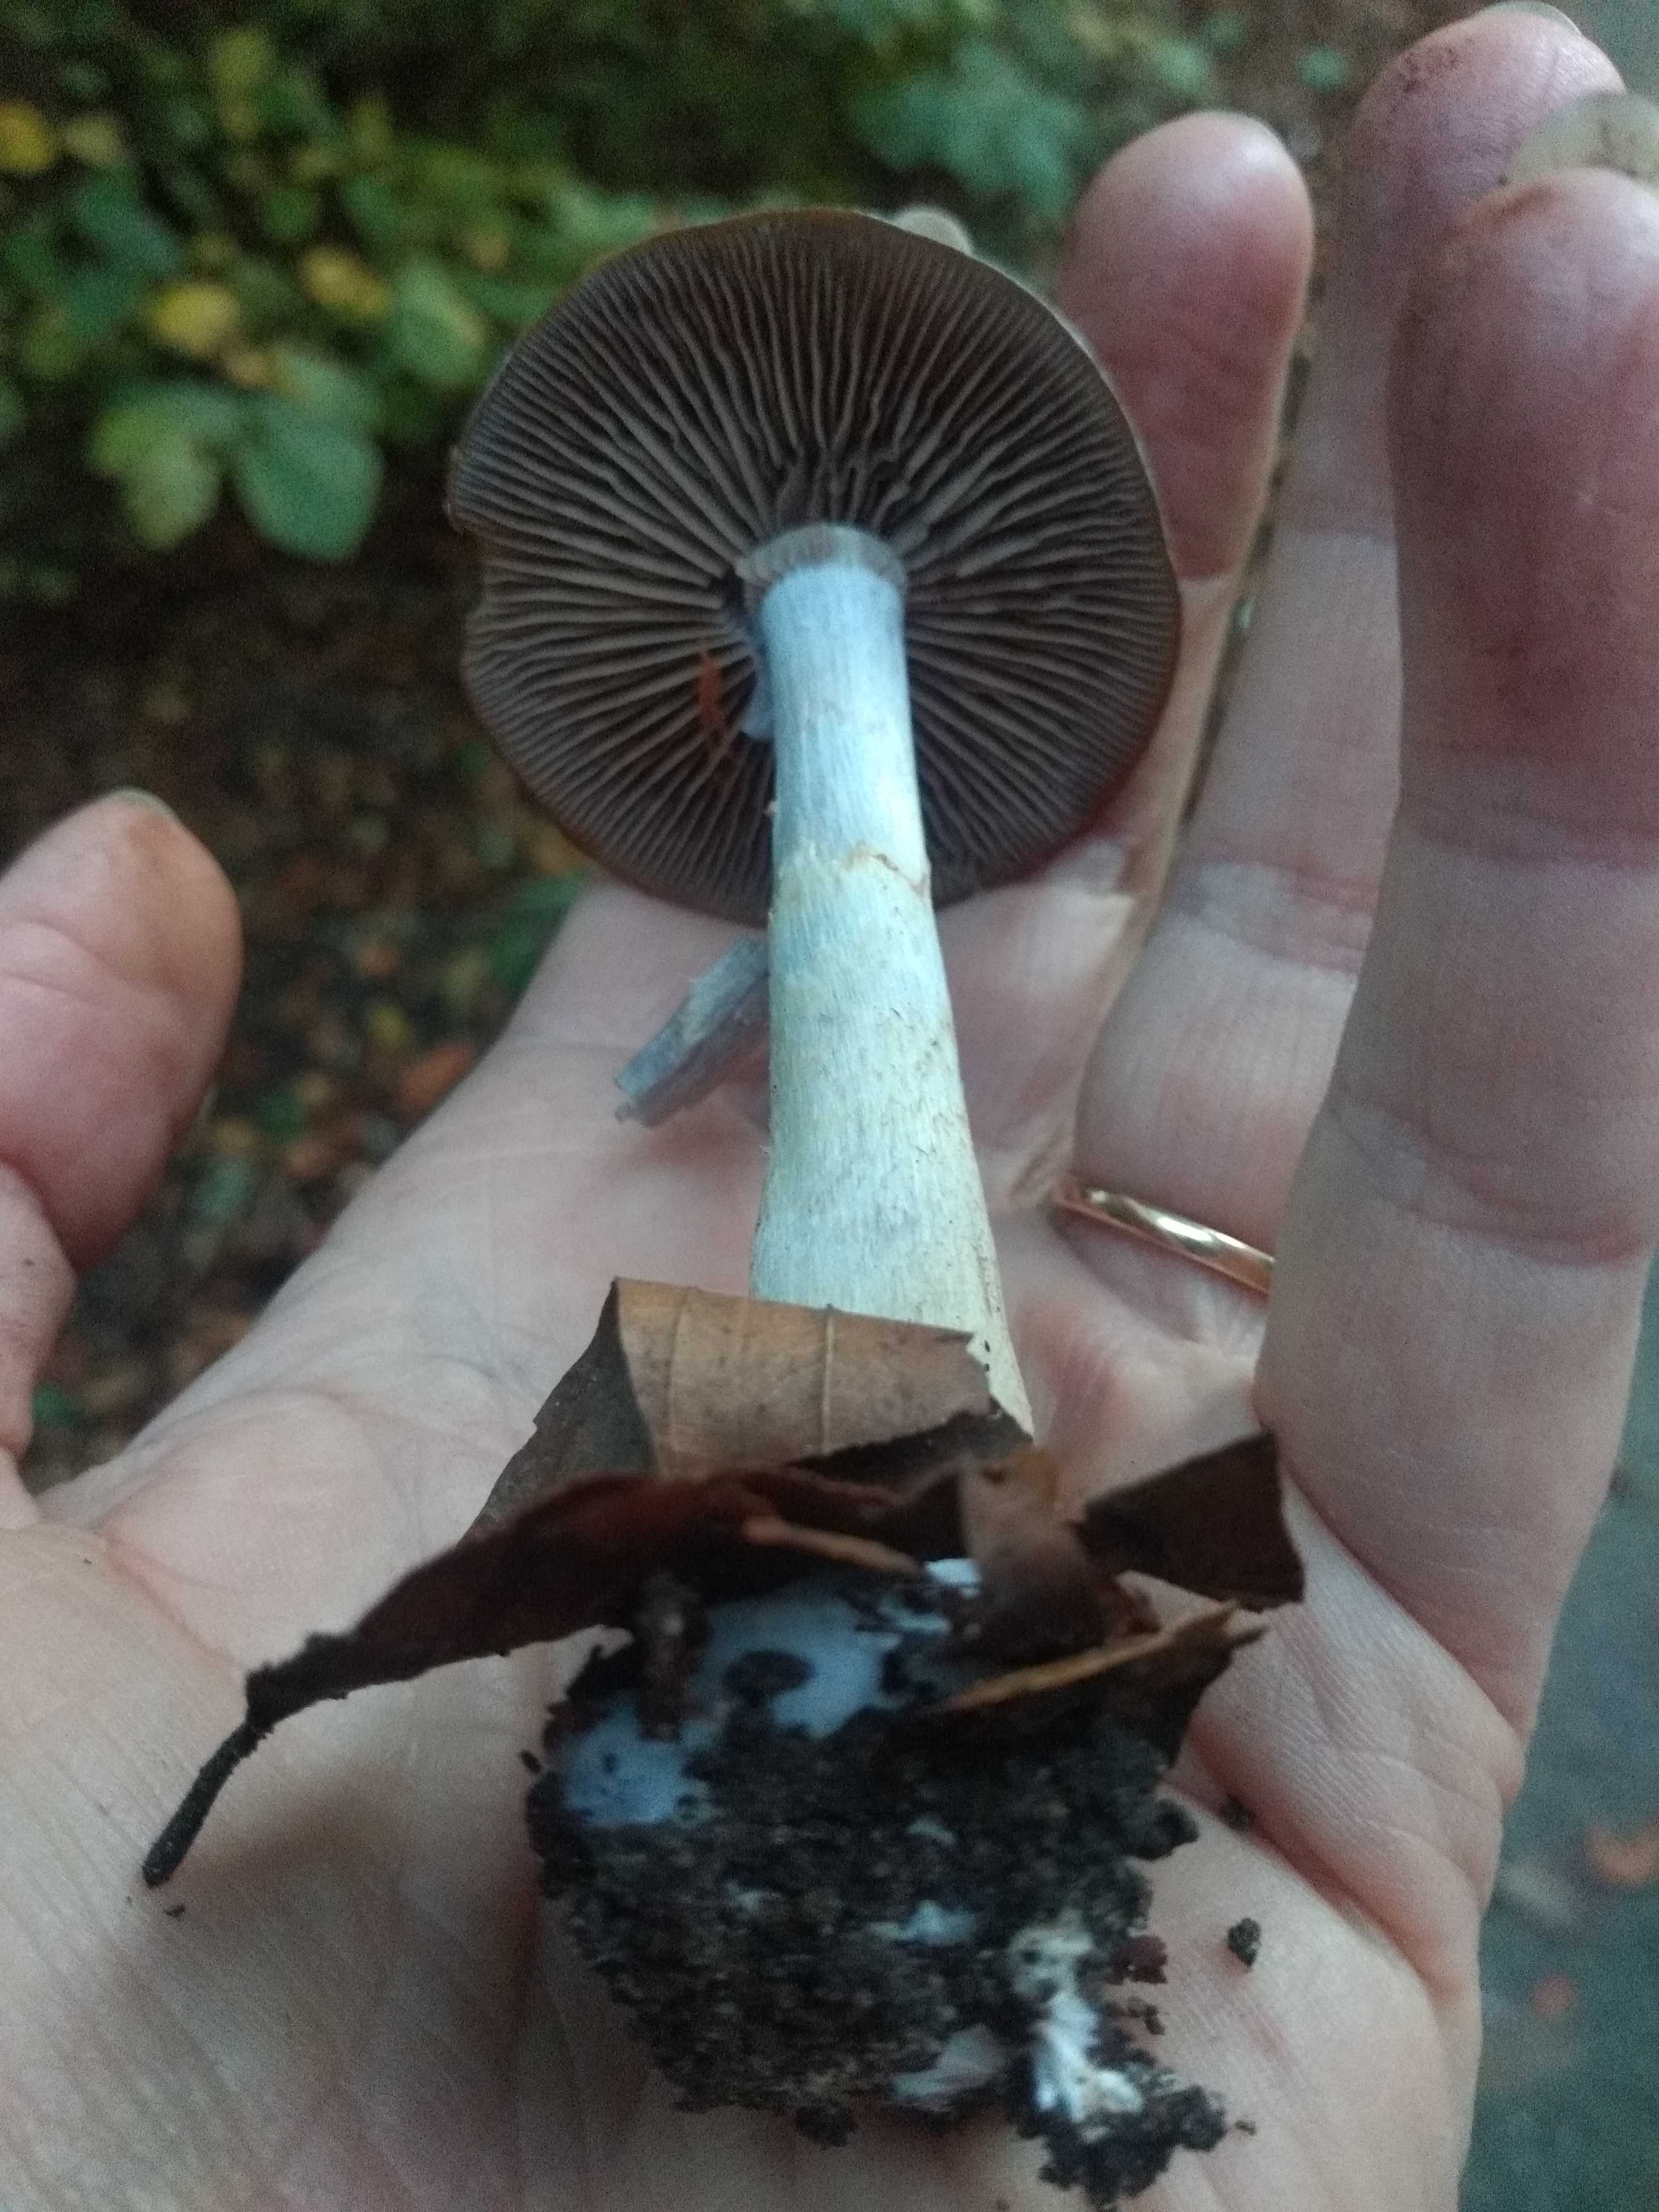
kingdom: Fungi
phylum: Basidiomycota
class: Agaricomycetes
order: Agaricales
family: Cortinariaceae
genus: Cortinarius
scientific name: Cortinarius
